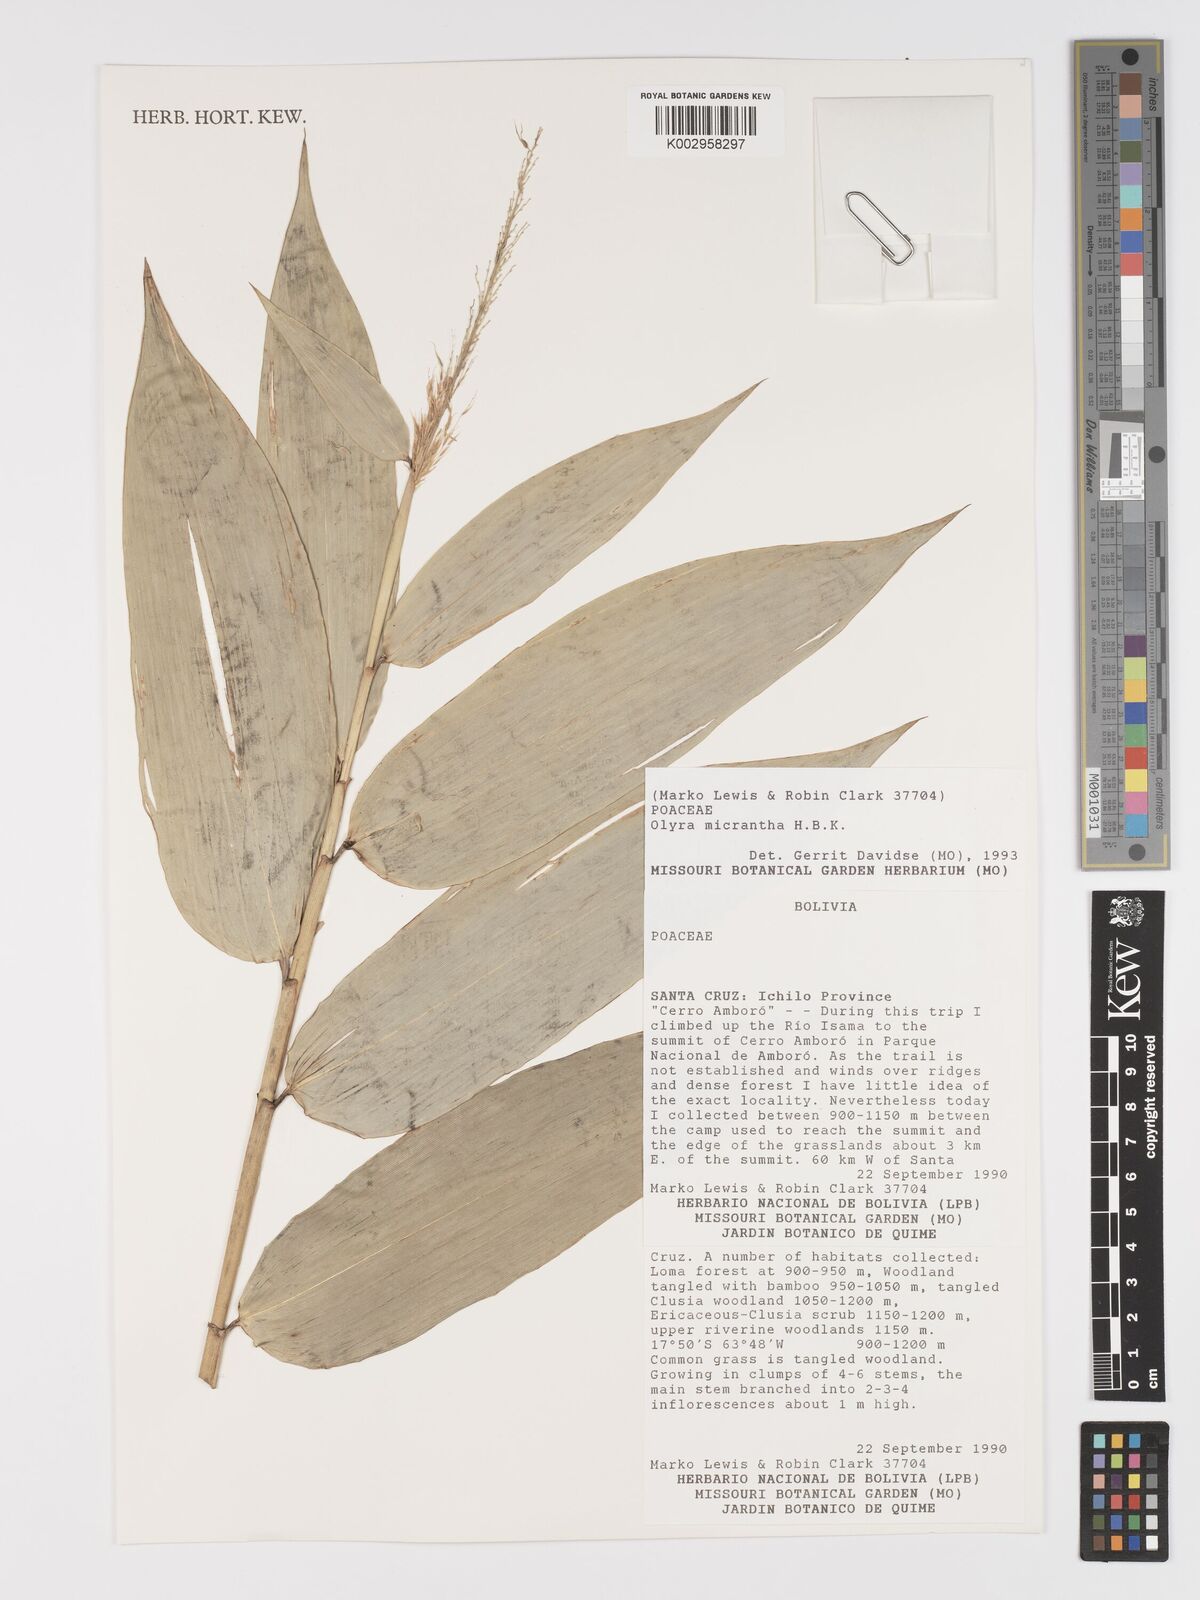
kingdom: Plantae
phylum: Tracheophyta
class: Liliopsida
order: Poales
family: Poaceae
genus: Taquara
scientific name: Taquara micrantha
